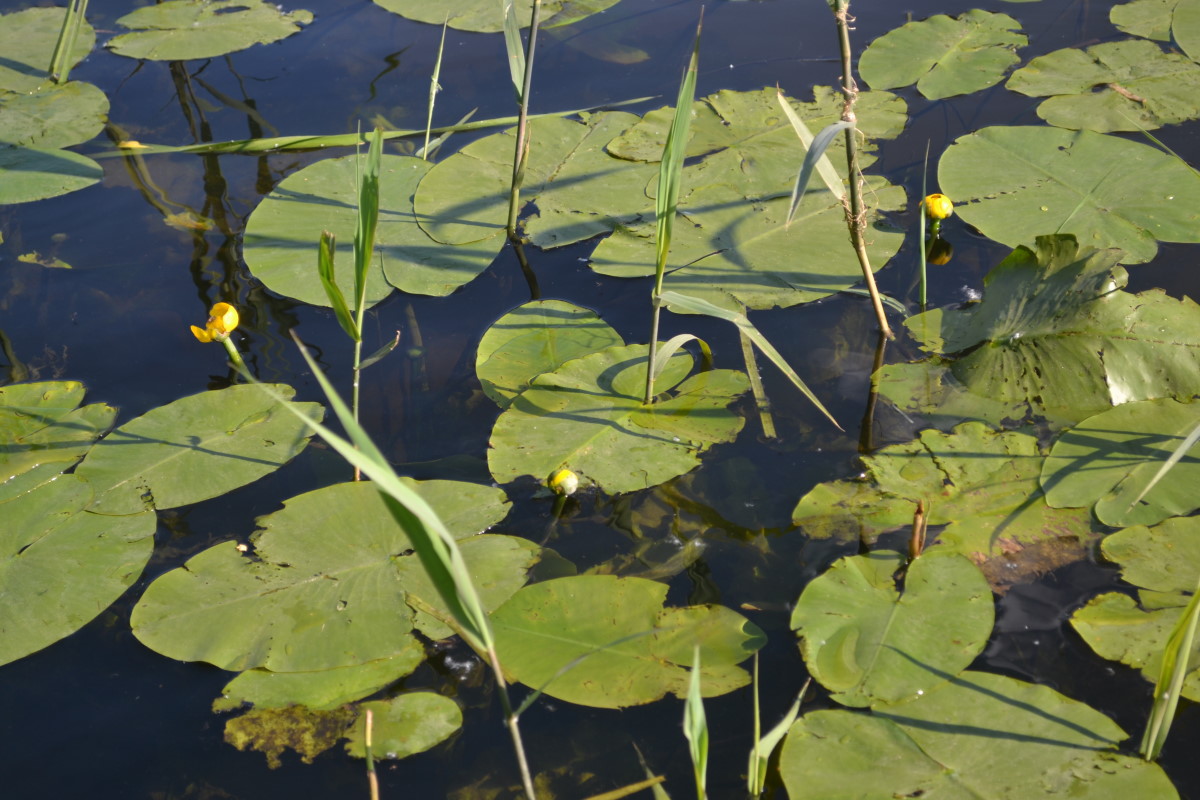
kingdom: Plantae
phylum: Tracheophyta
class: Magnoliopsida
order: Nymphaeales
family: Nymphaeaceae
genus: Nuphar
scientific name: Nuphar lutea
